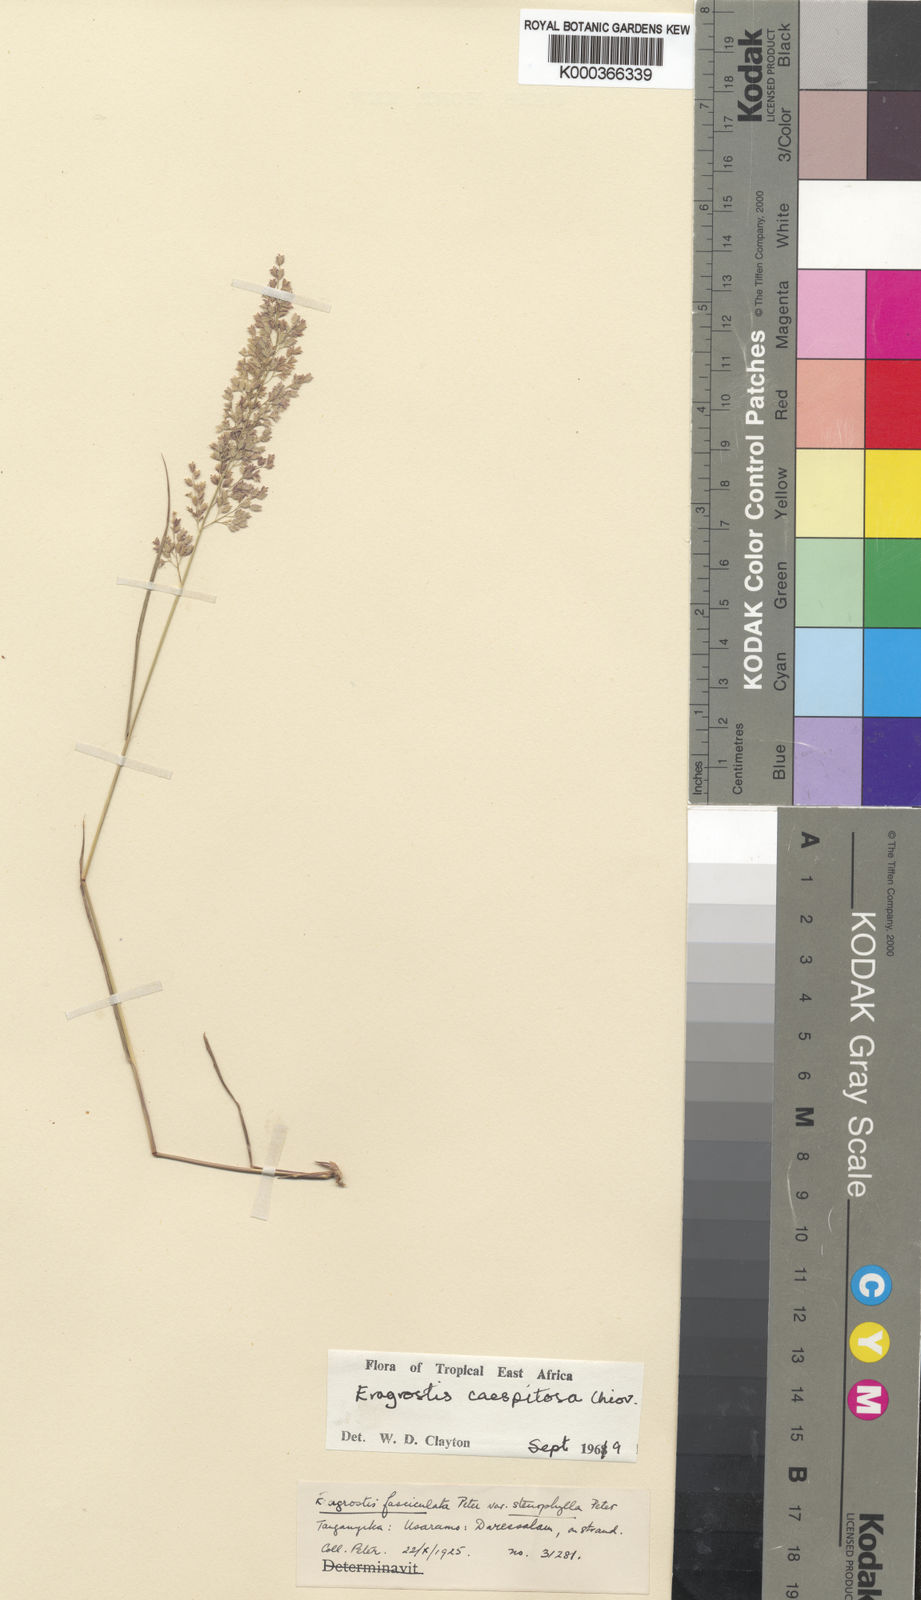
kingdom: Plantae
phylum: Tracheophyta
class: Liliopsida
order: Poales
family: Poaceae
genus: Eragrostis
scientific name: Eragrostis caespitosa
